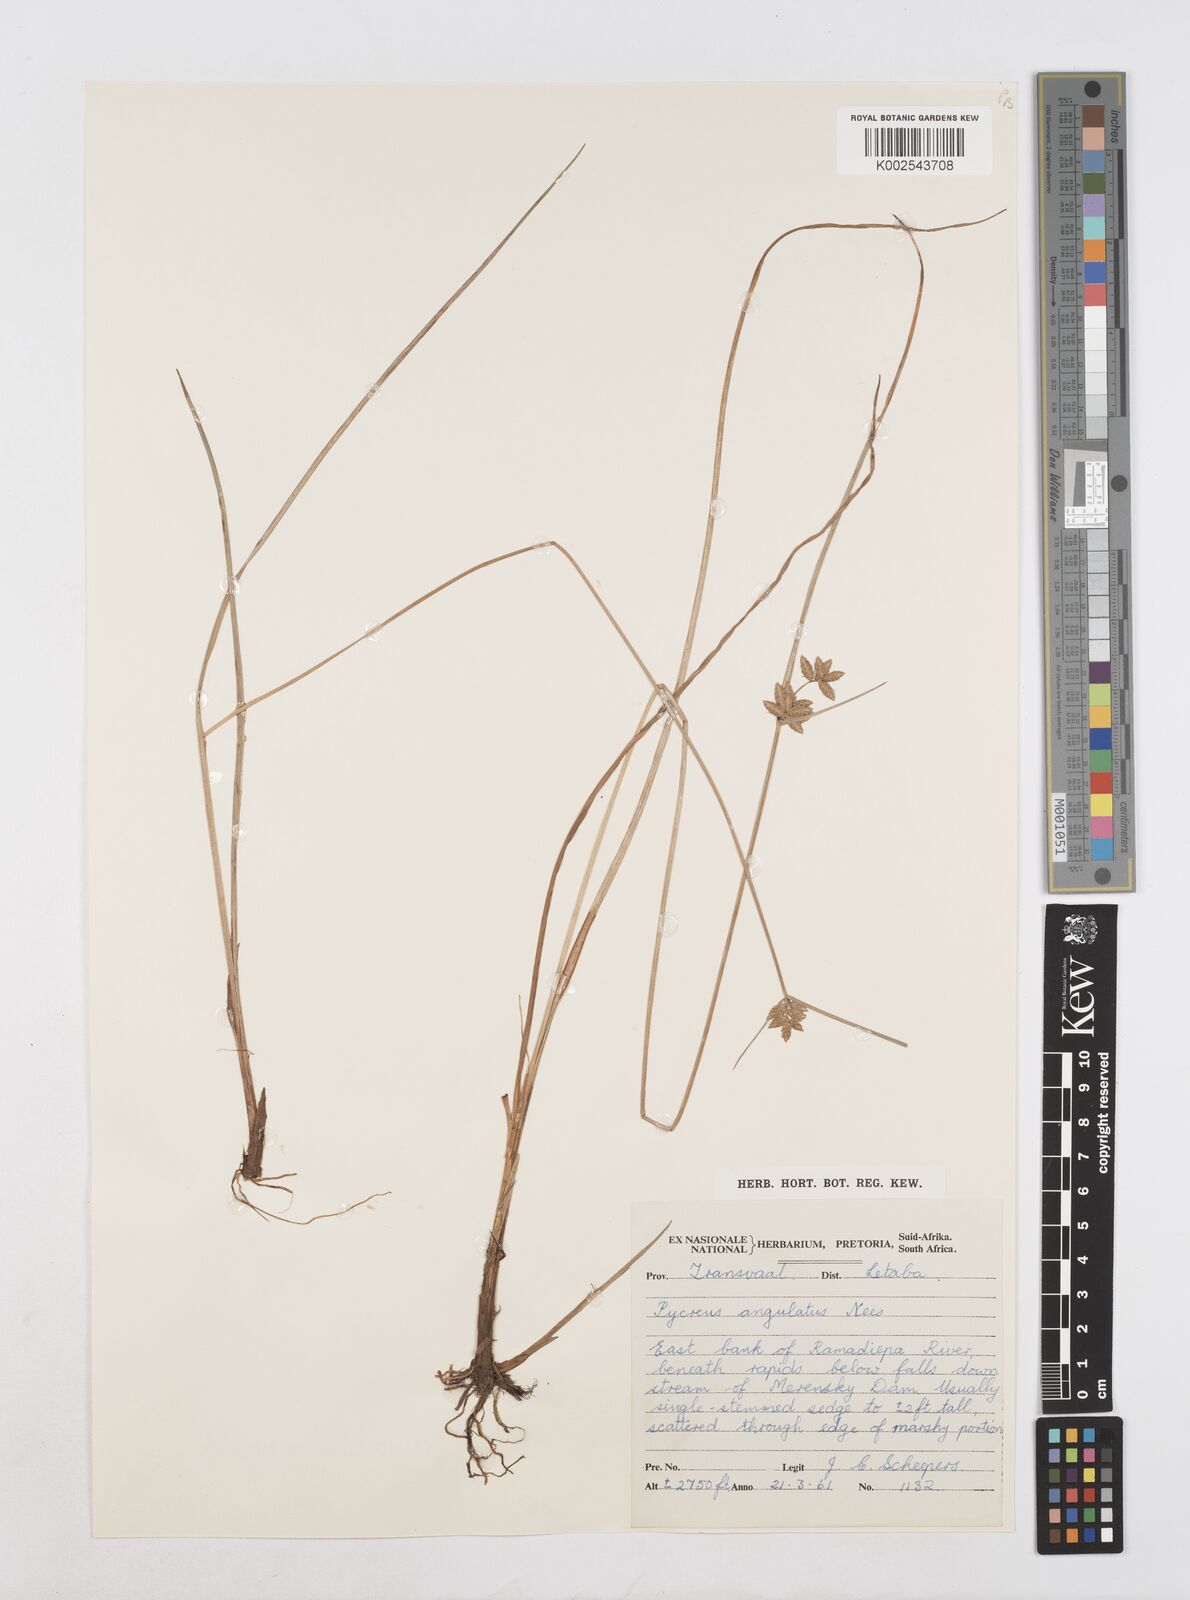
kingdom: Plantae
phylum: Tracheophyta
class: Liliopsida
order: Poales
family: Cyperaceae
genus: Cyperus
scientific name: Cyperus unioloides
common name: Uniola flatsedge
